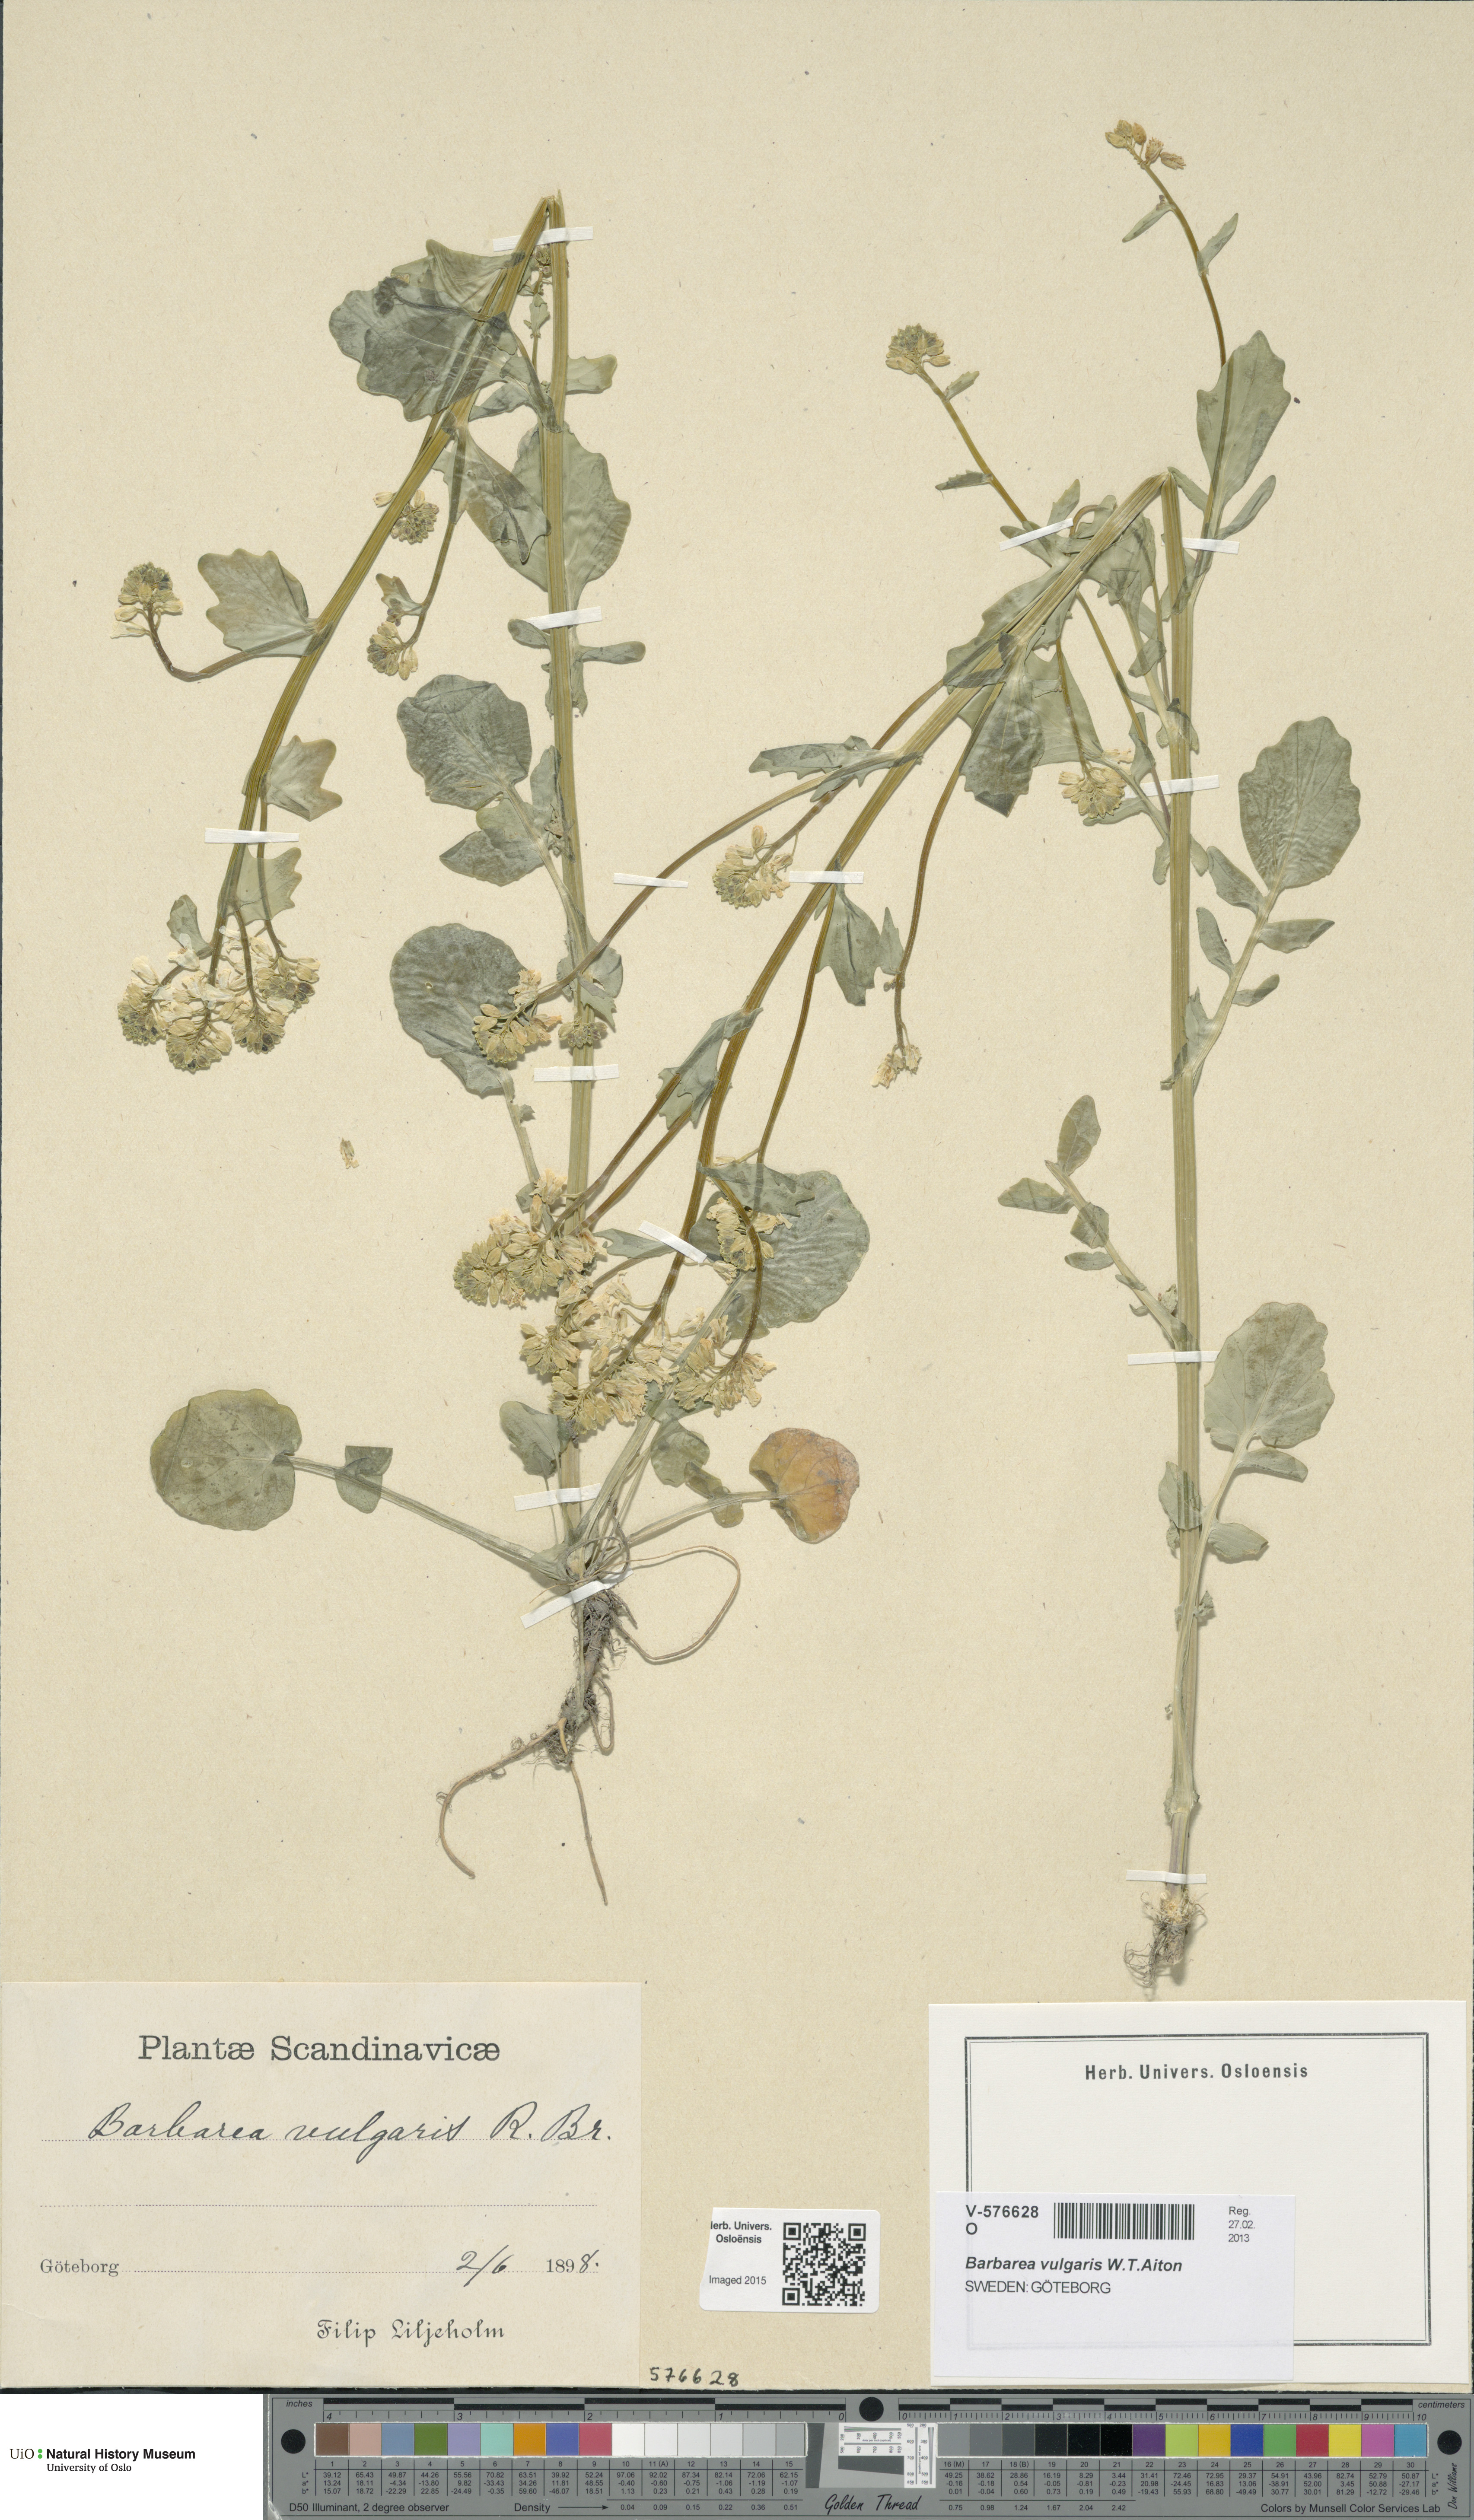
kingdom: Plantae
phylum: Tracheophyta
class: Magnoliopsida
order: Brassicales
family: Brassicaceae
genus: Barbarea
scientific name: Barbarea vulgaris
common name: Cressy-greens
